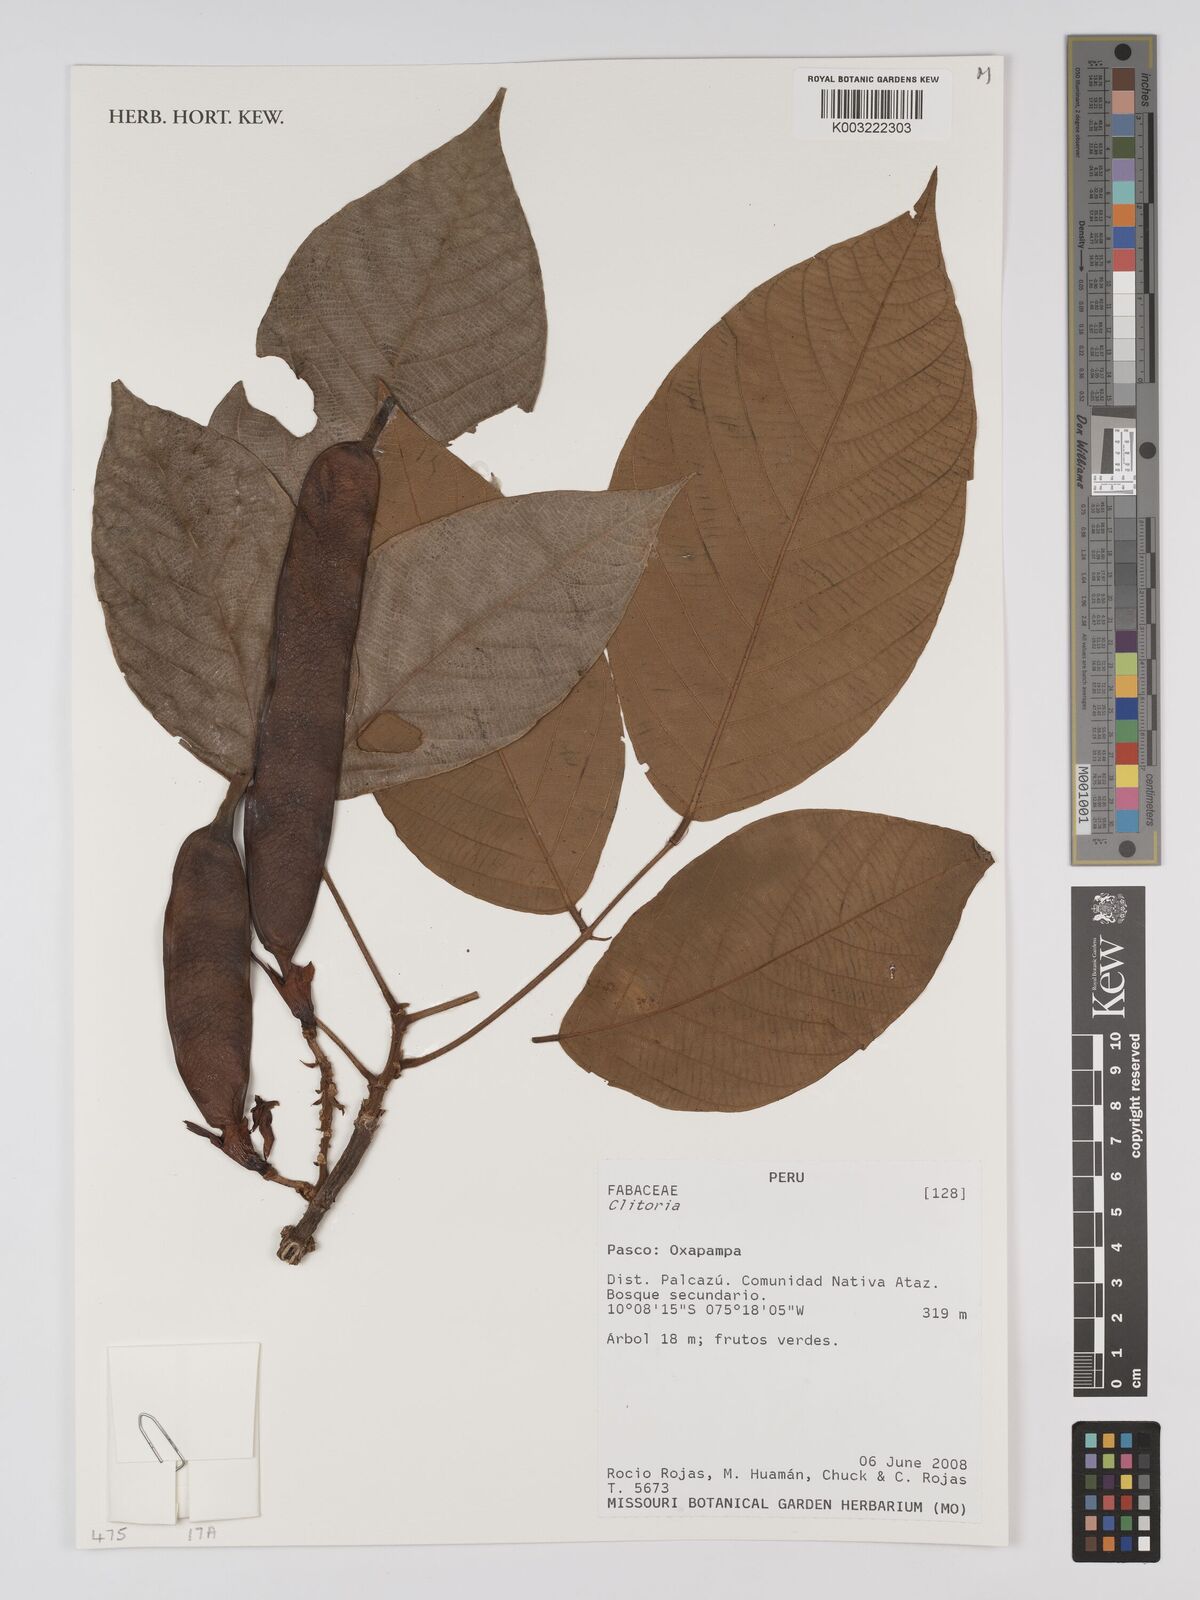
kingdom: Plantae
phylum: Tracheophyta
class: Magnoliopsida
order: Fabales
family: Fabaceae
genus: Clitoria
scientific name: Clitoria
